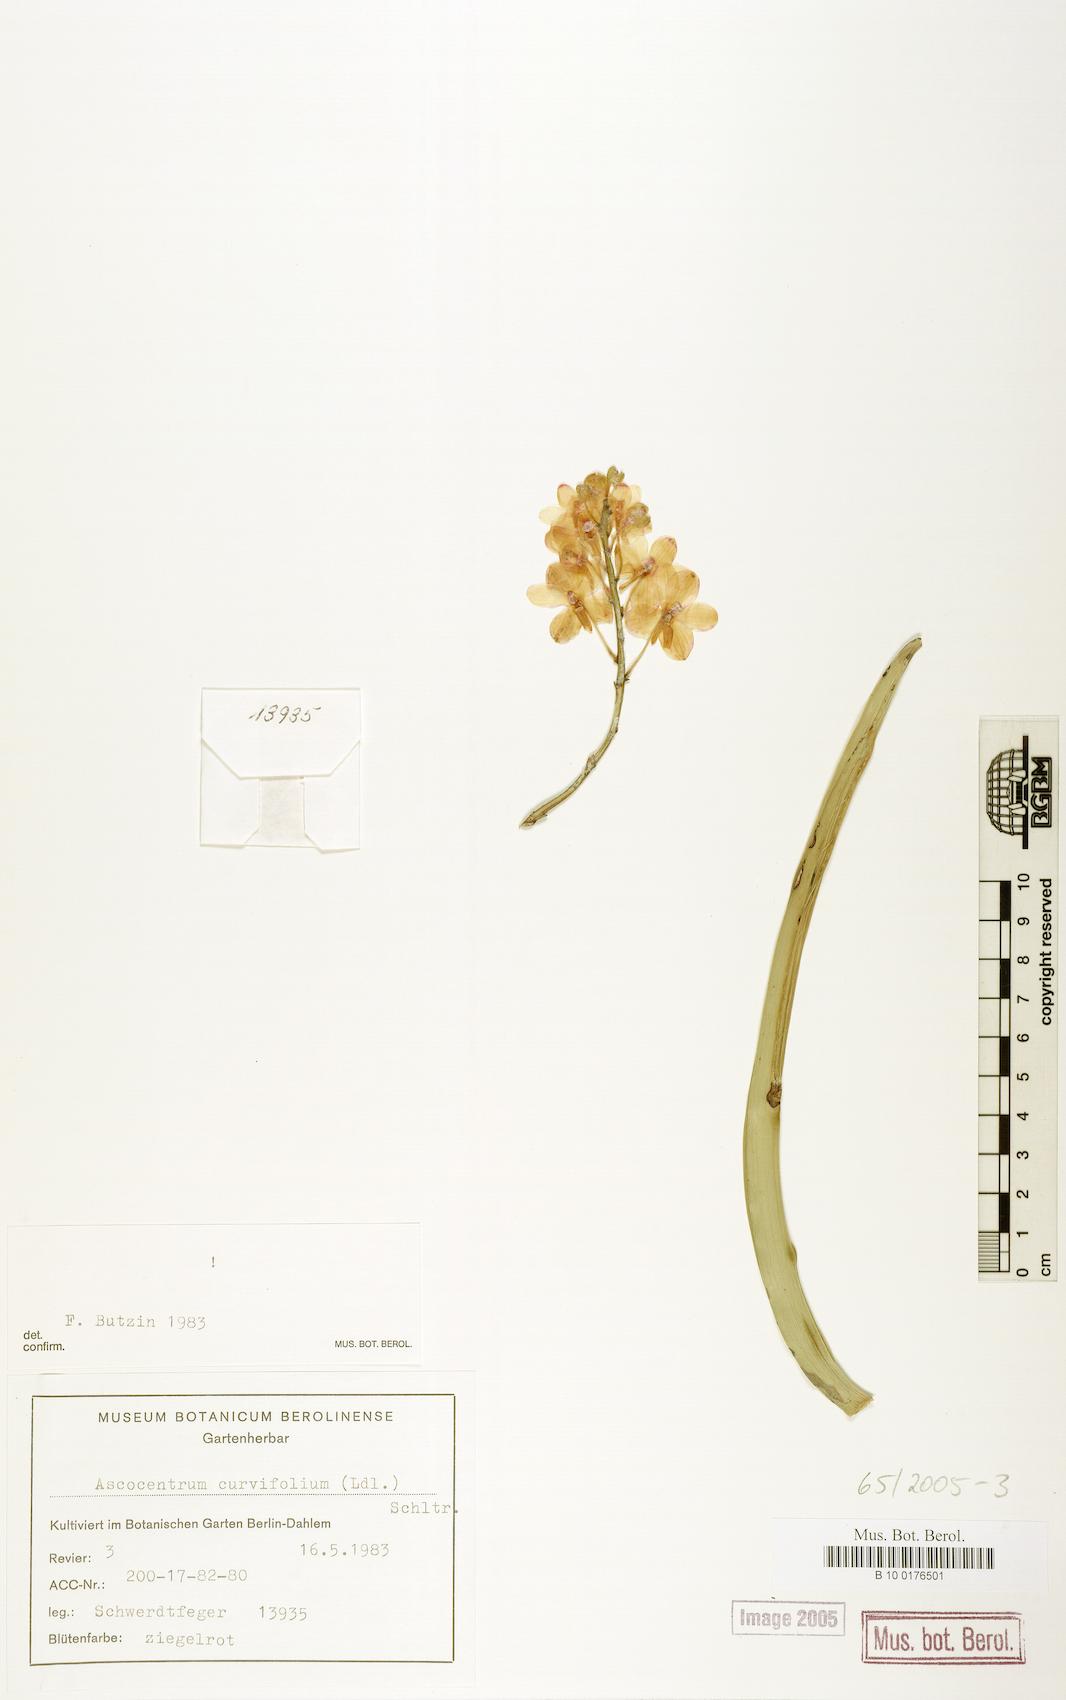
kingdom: Plantae
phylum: Tracheophyta
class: Liliopsida
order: Asparagales
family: Orchidaceae
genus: Vanda
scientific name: Vanda curvifolia
